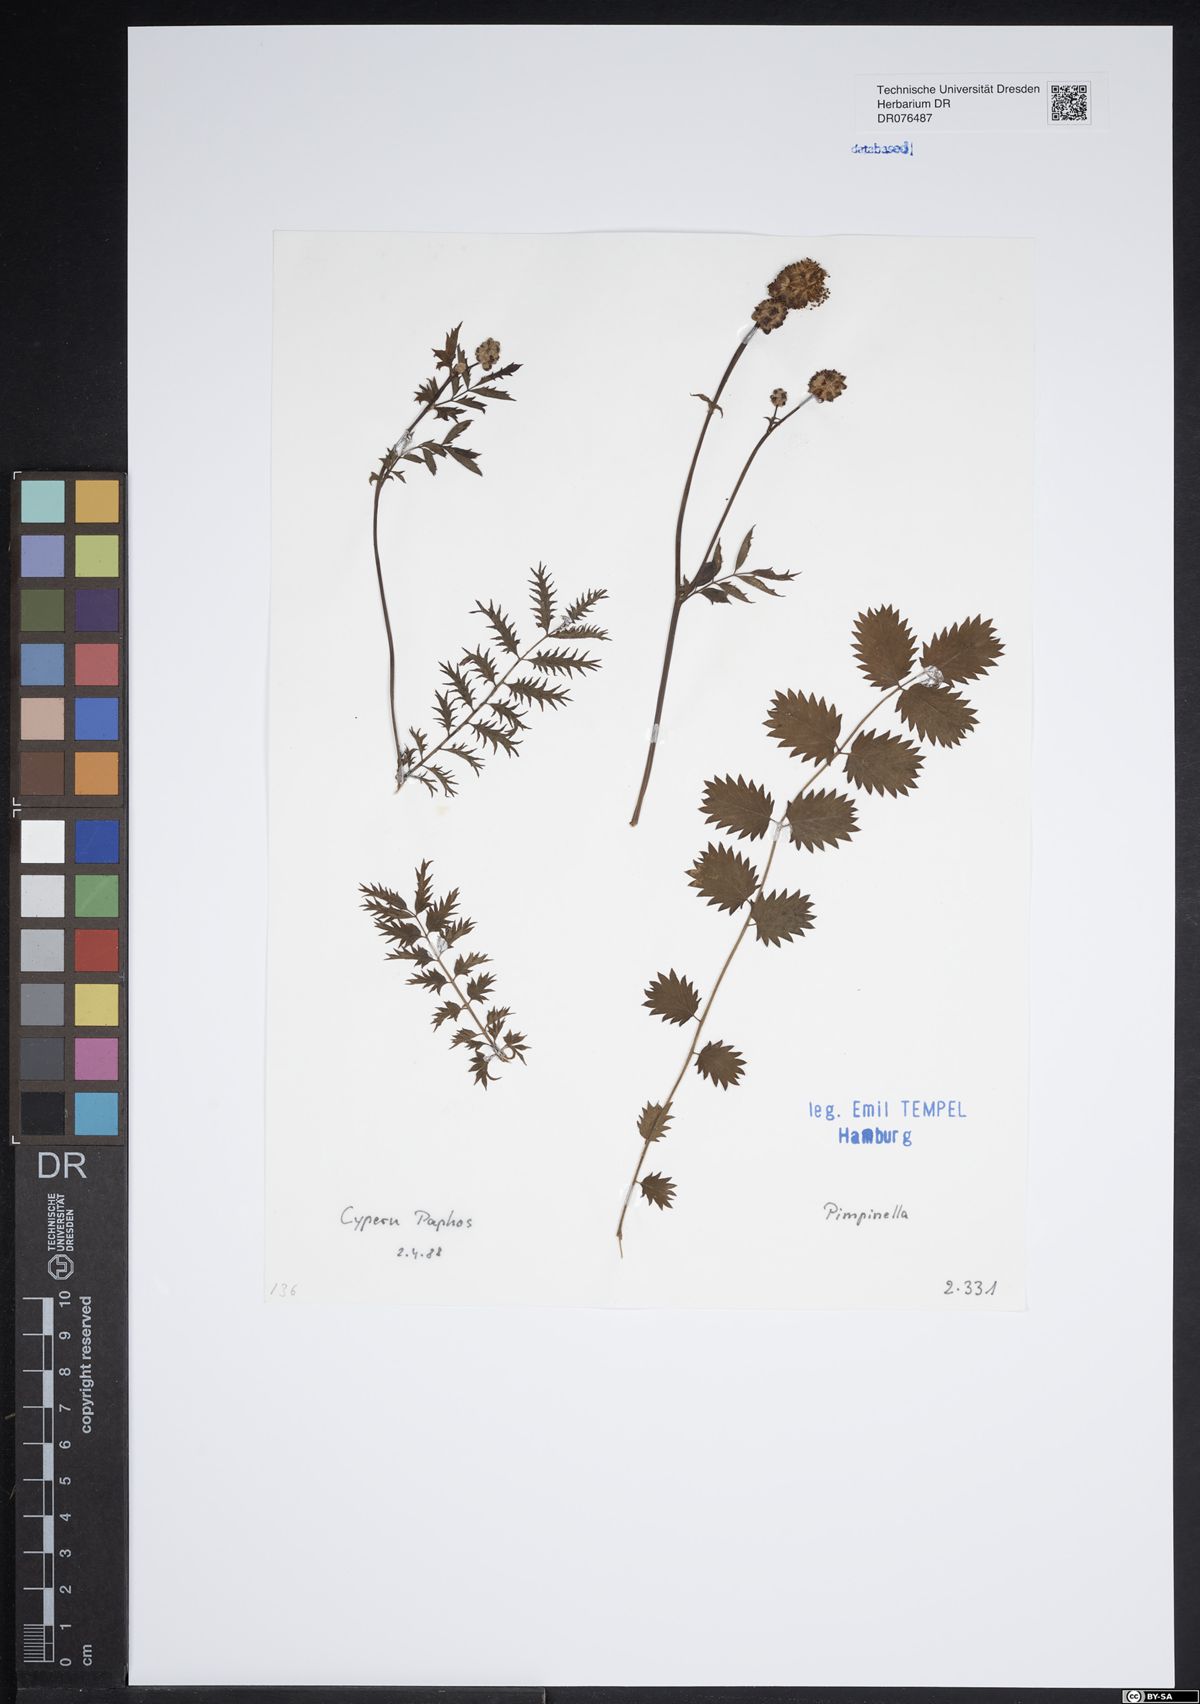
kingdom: Plantae
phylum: Tracheophyta
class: Magnoliopsida
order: Apiales
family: Apiaceae
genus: Pimpinella
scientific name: Pimpinella
